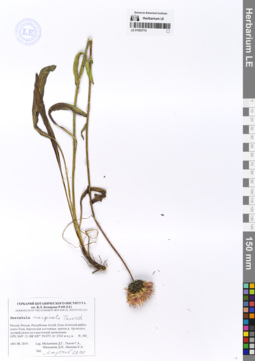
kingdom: Plantae
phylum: Tracheophyta
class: Magnoliopsida
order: Asterales
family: Asteraceae
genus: Klasea
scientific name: Klasea marginata
